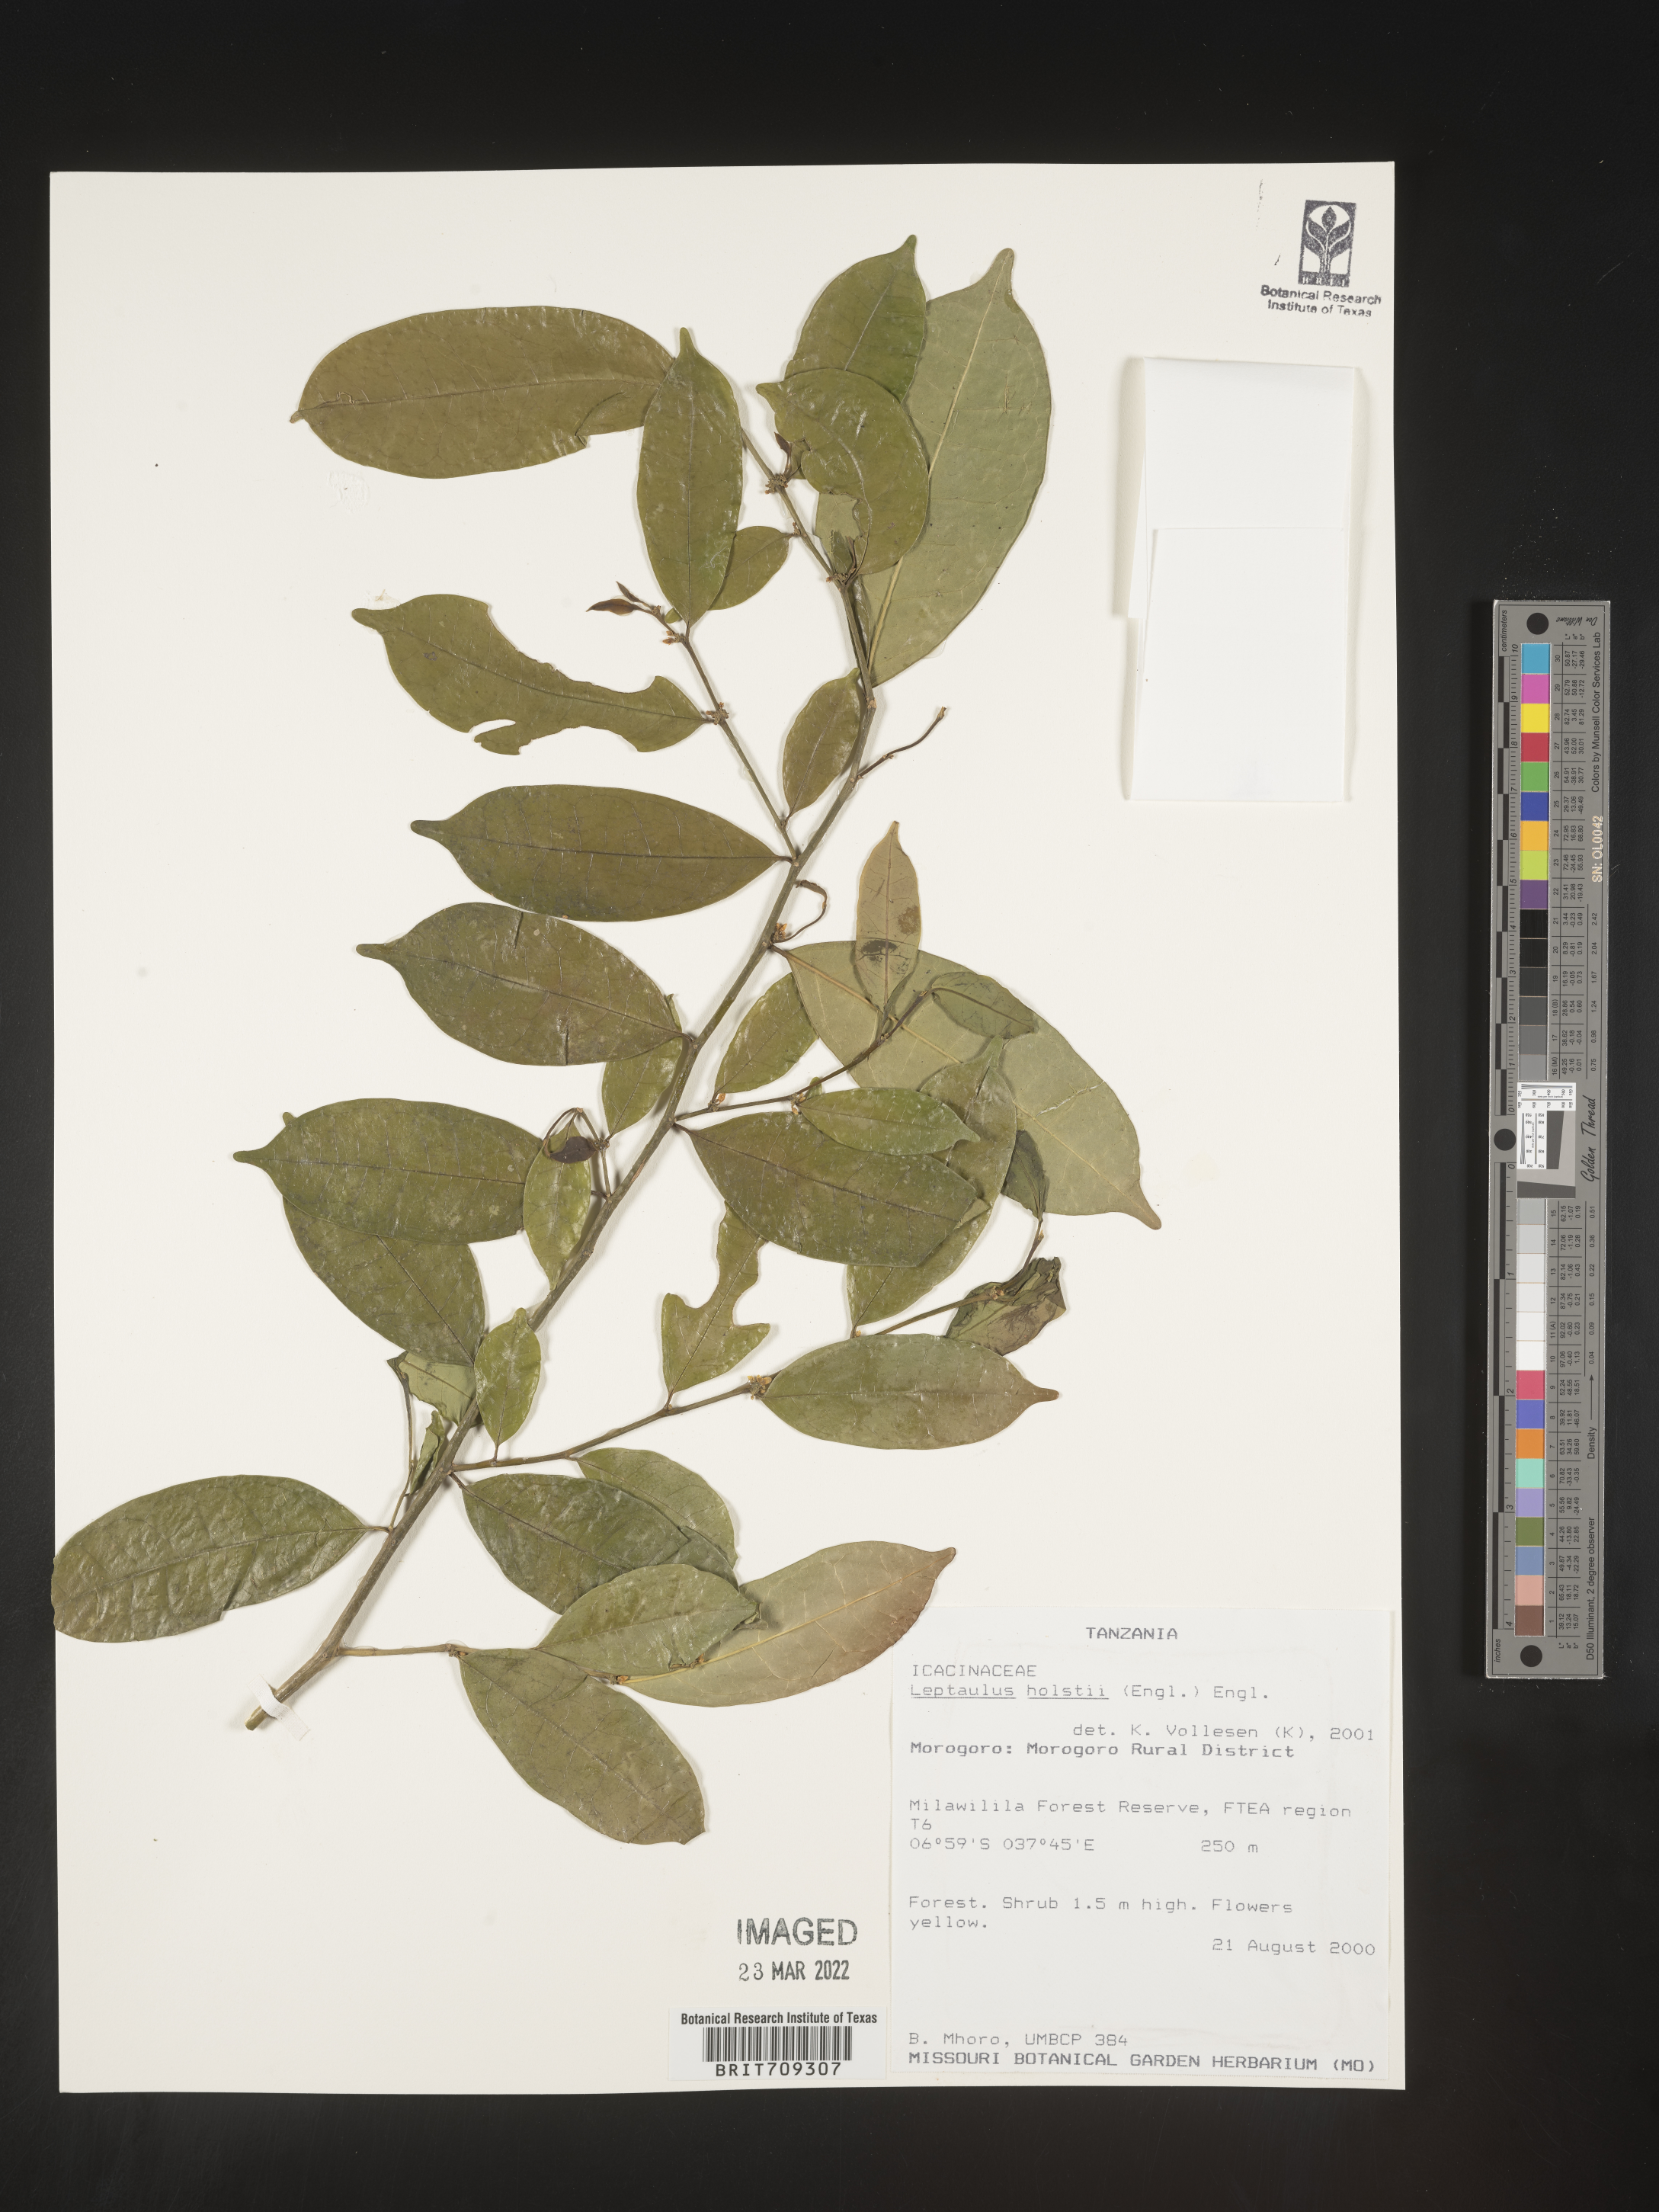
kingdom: Plantae
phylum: Tracheophyta
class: Magnoliopsida
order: Cardiopteridales
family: Cardiopteridaceae
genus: Leptaulus
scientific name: Leptaulus
